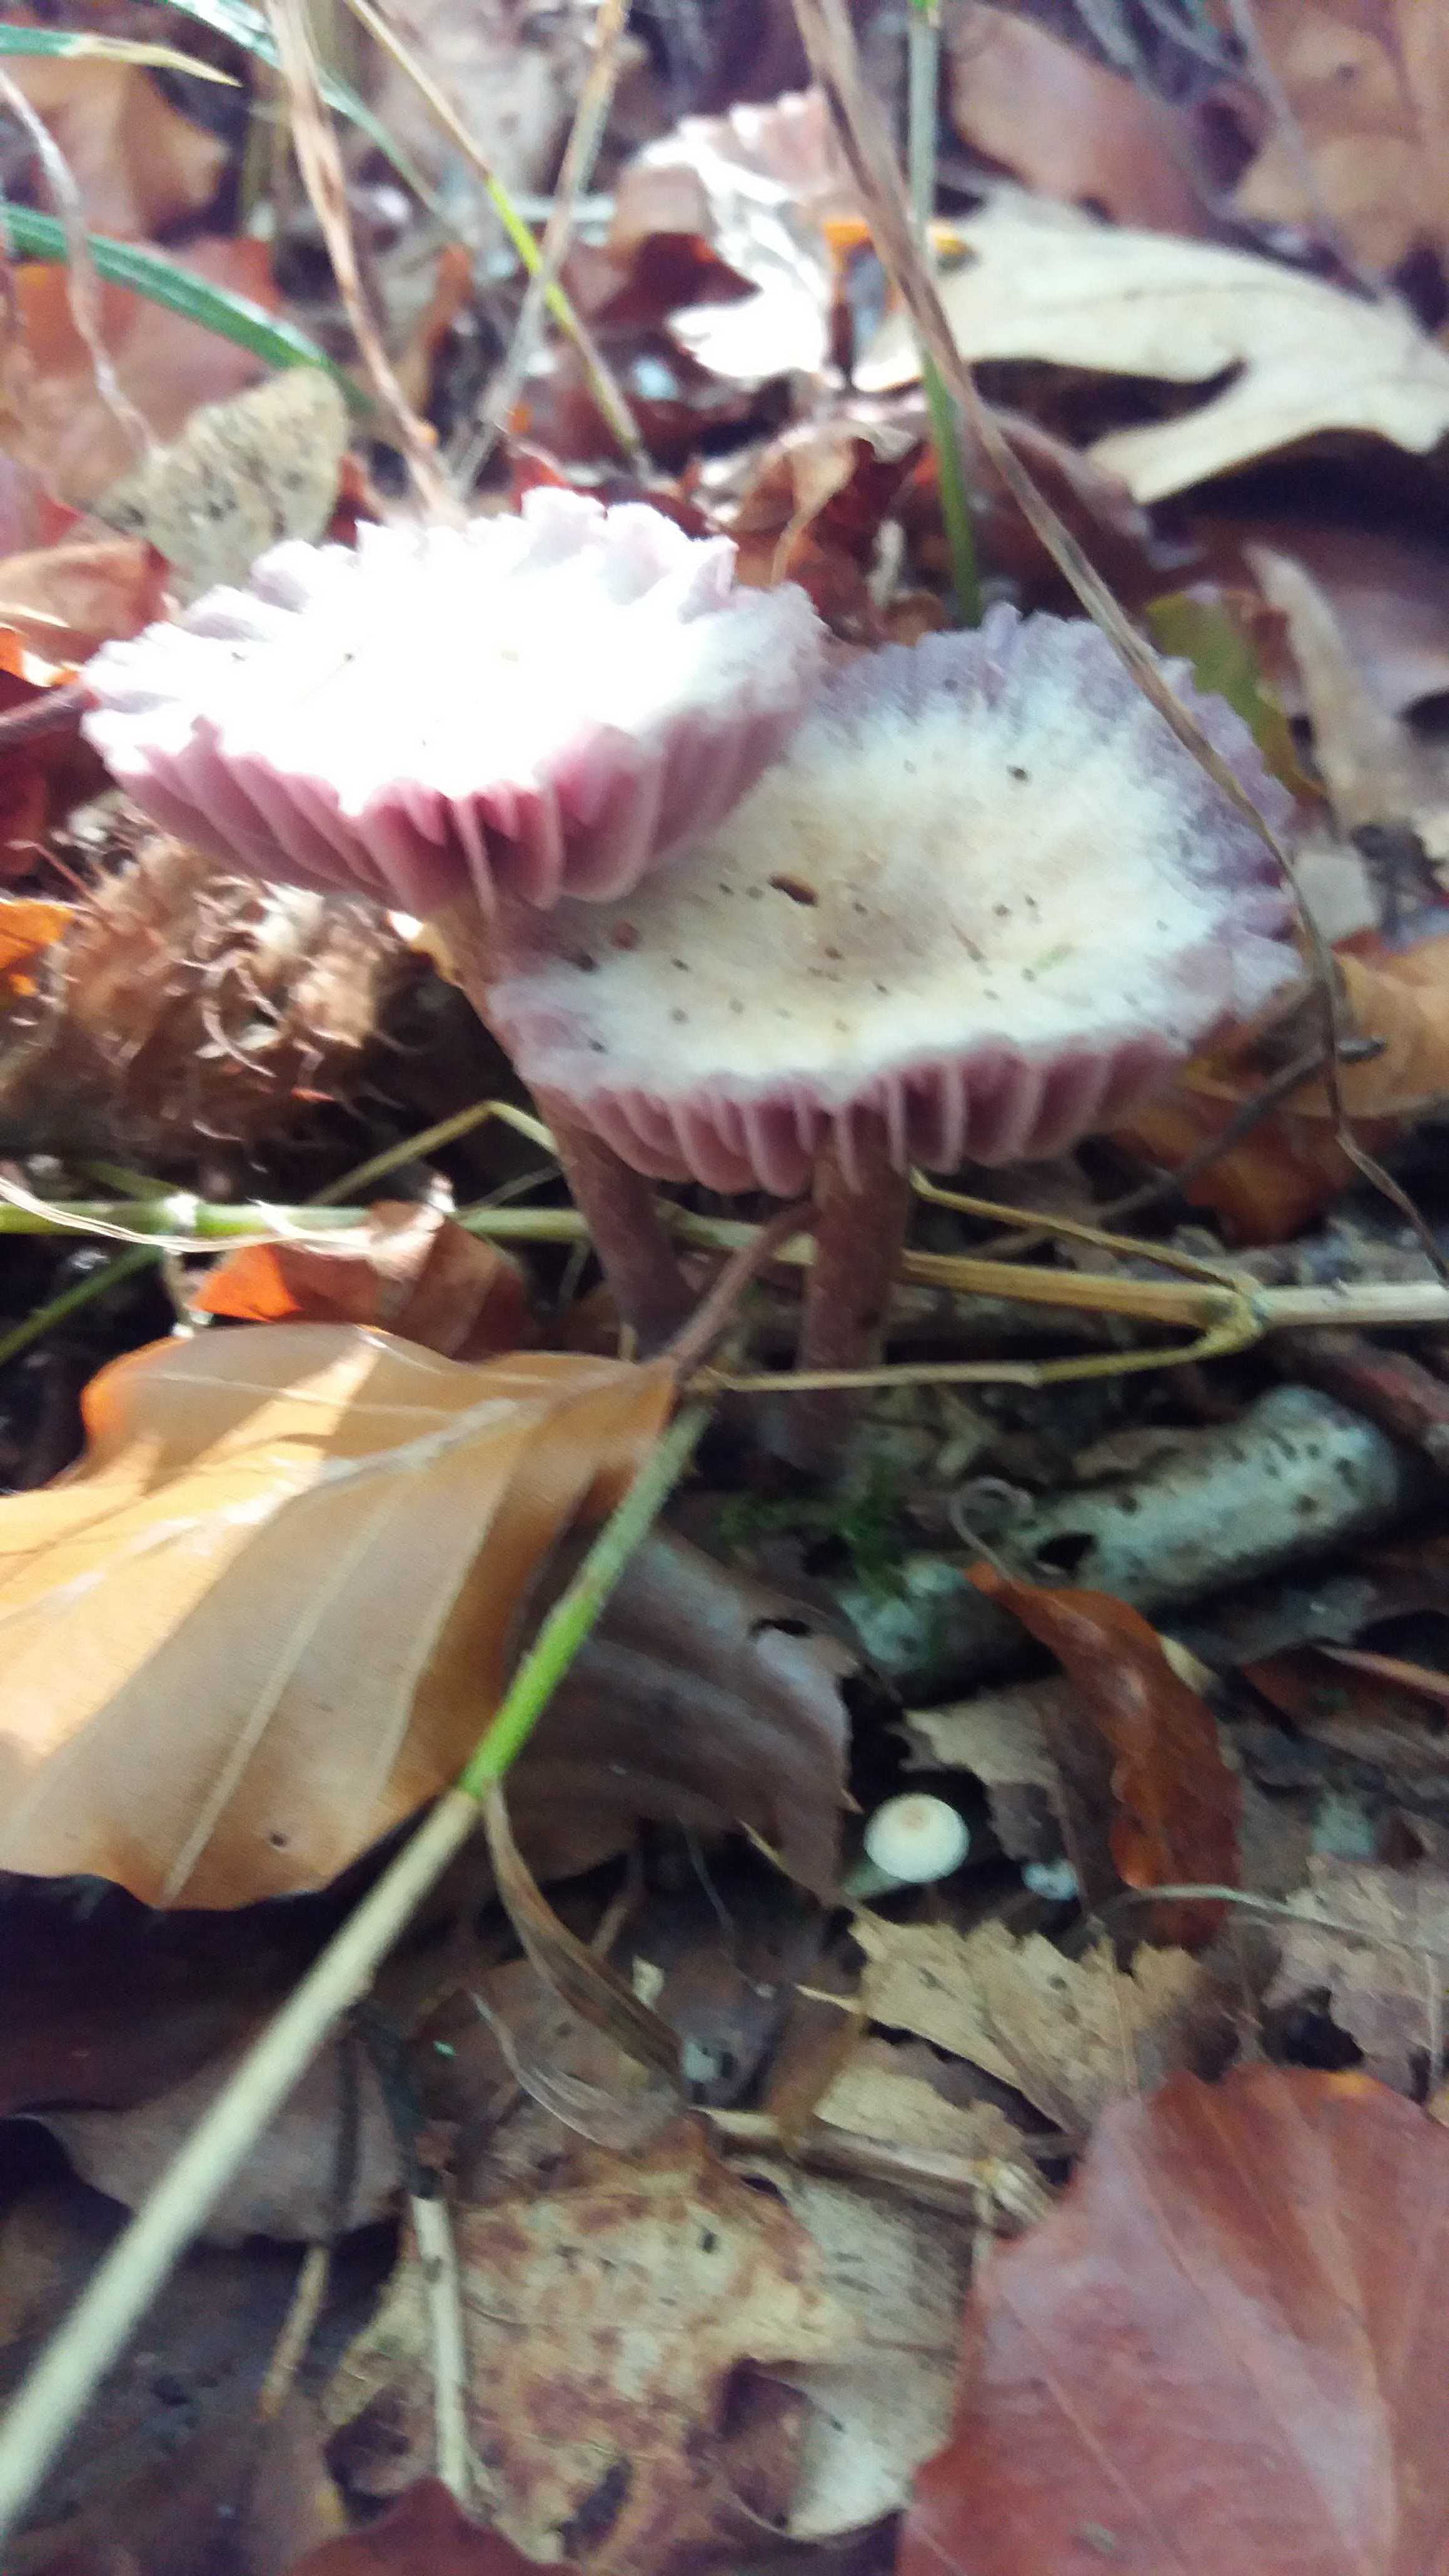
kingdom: Fungi
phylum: Basidiomycota
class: Agaricomycetes
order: Agaricales
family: Hydnangiaceae
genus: Laccaria
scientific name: Laccaria amethystina
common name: violet ametysthat
